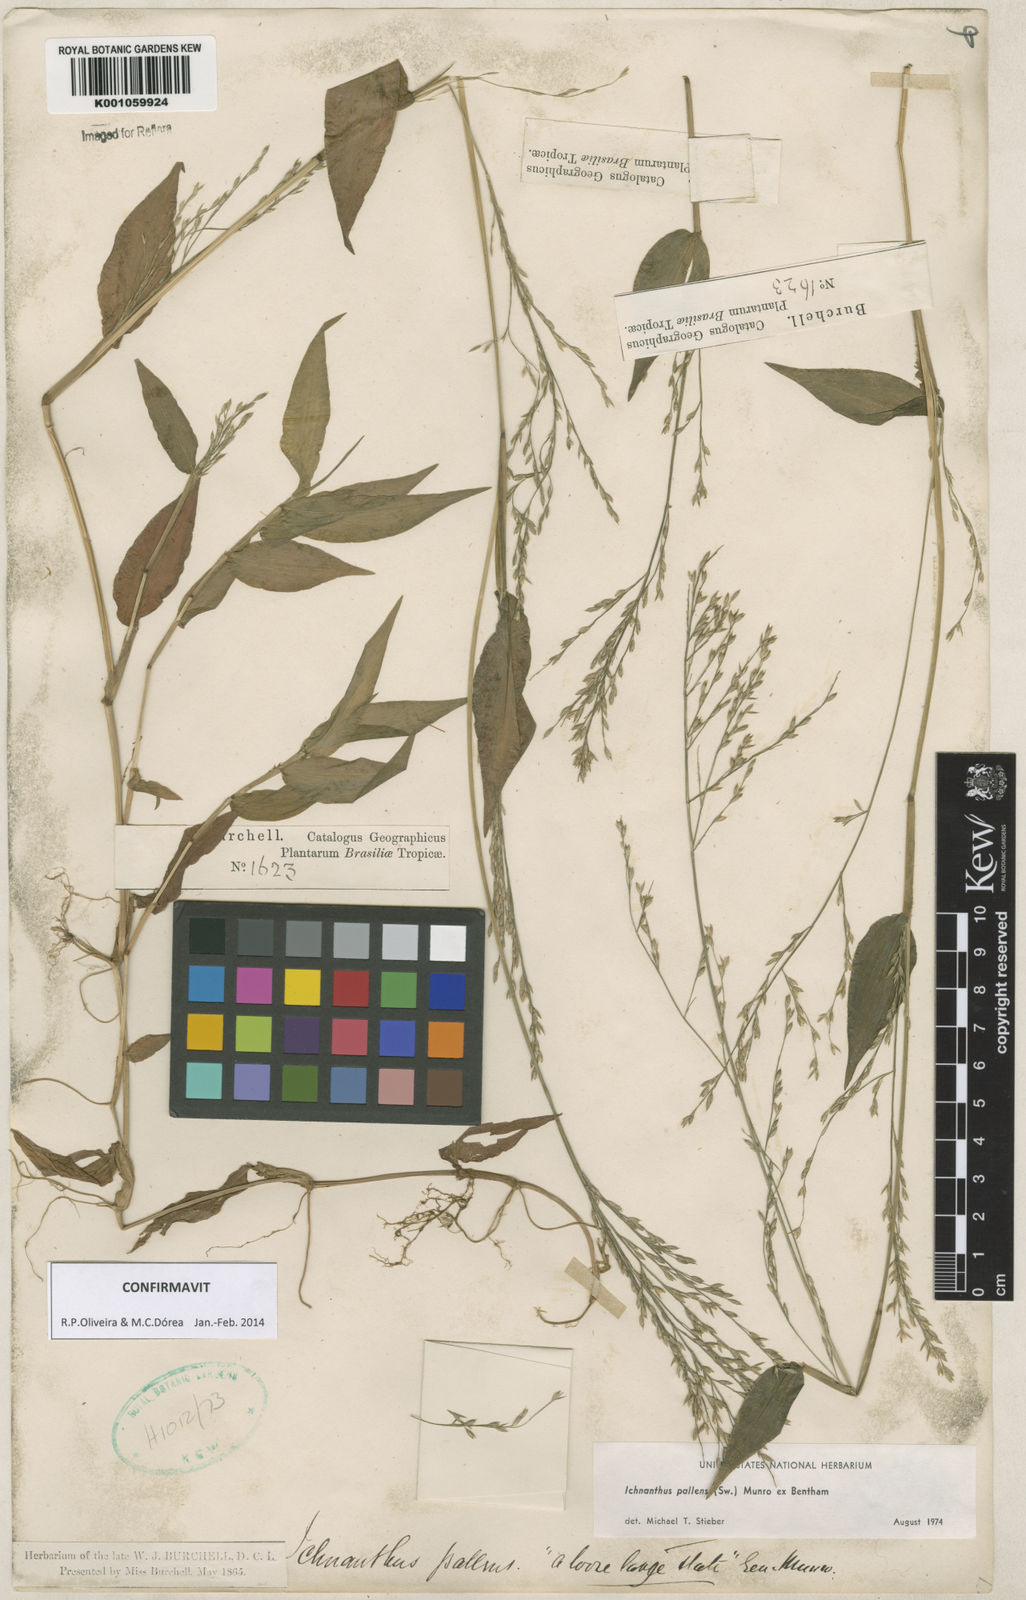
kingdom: Plantae
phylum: Tracheophyta
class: Liliopsida
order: Poales
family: Poaceae
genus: Ichnanthus
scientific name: Ichnanthus pallens
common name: Water grass
